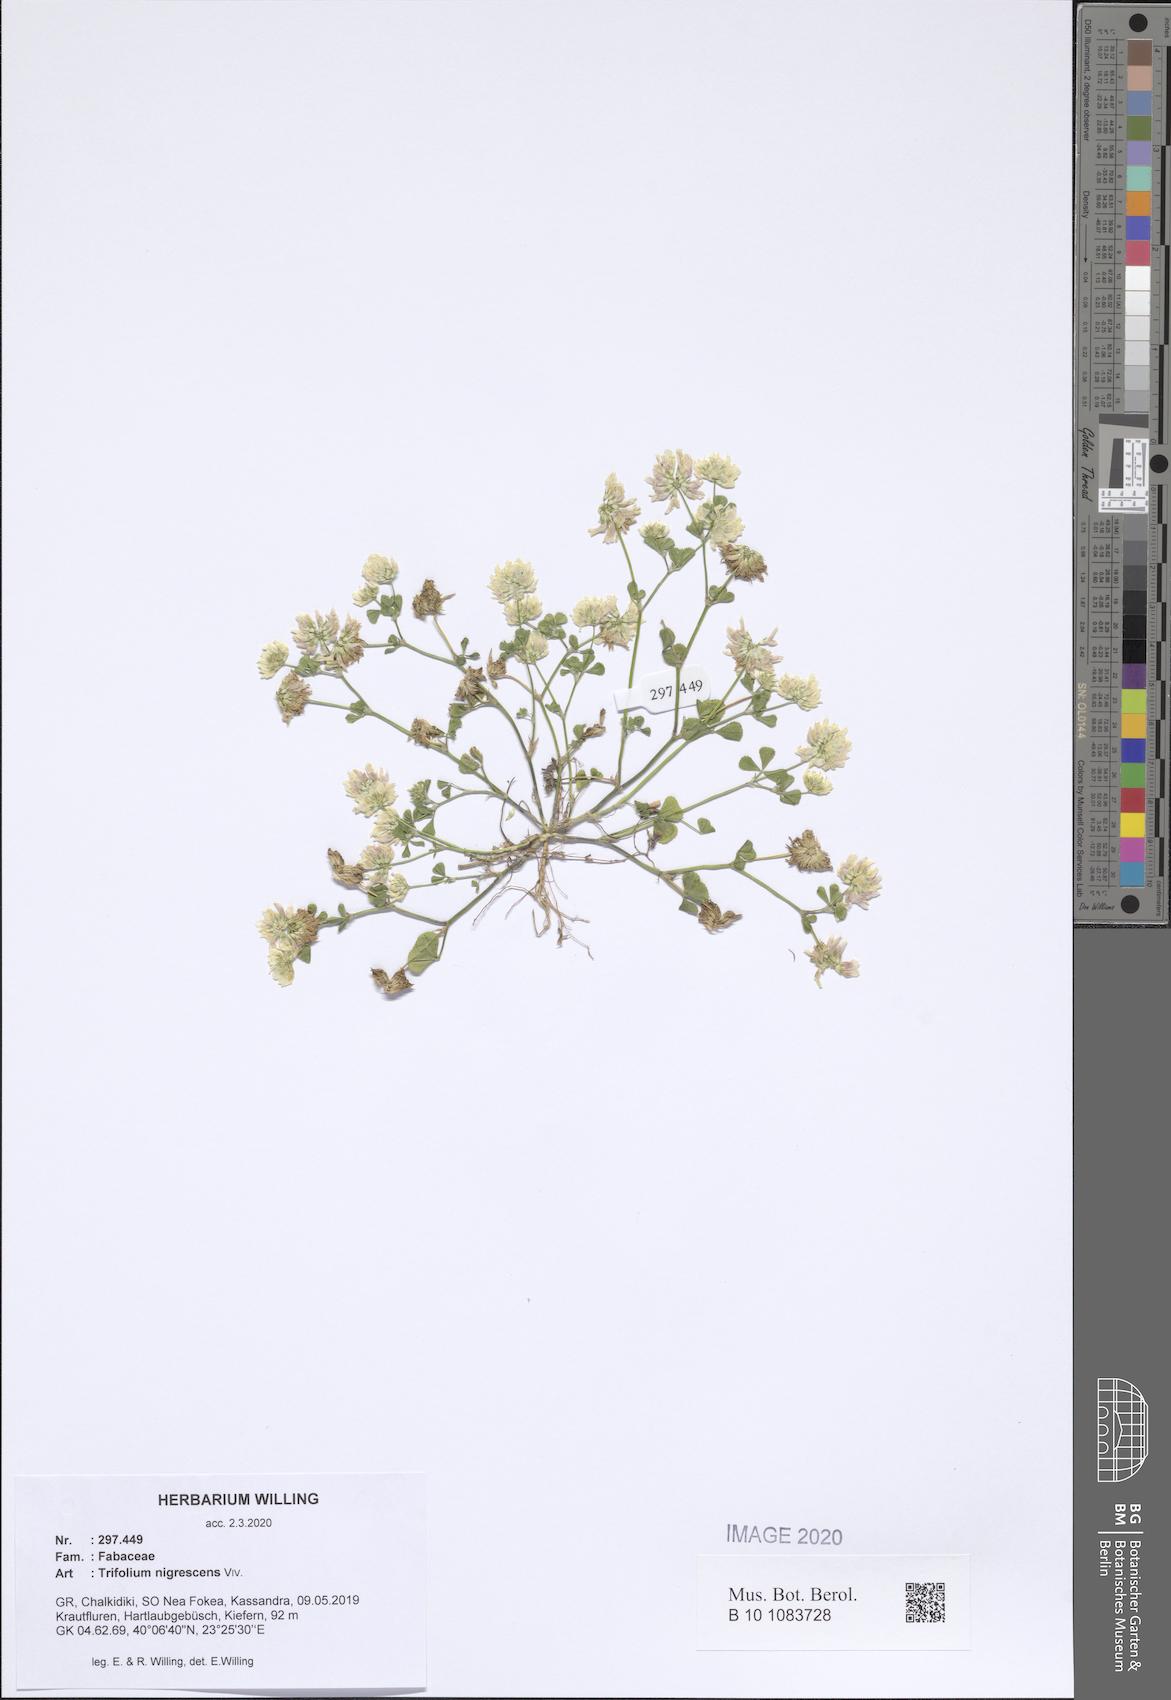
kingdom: Plantae
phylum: Tracheophyta
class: Magnoliopsida
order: Fabales
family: Fabaceae
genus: Trifolium
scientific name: Trifolium nigrescens
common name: Small white clover
